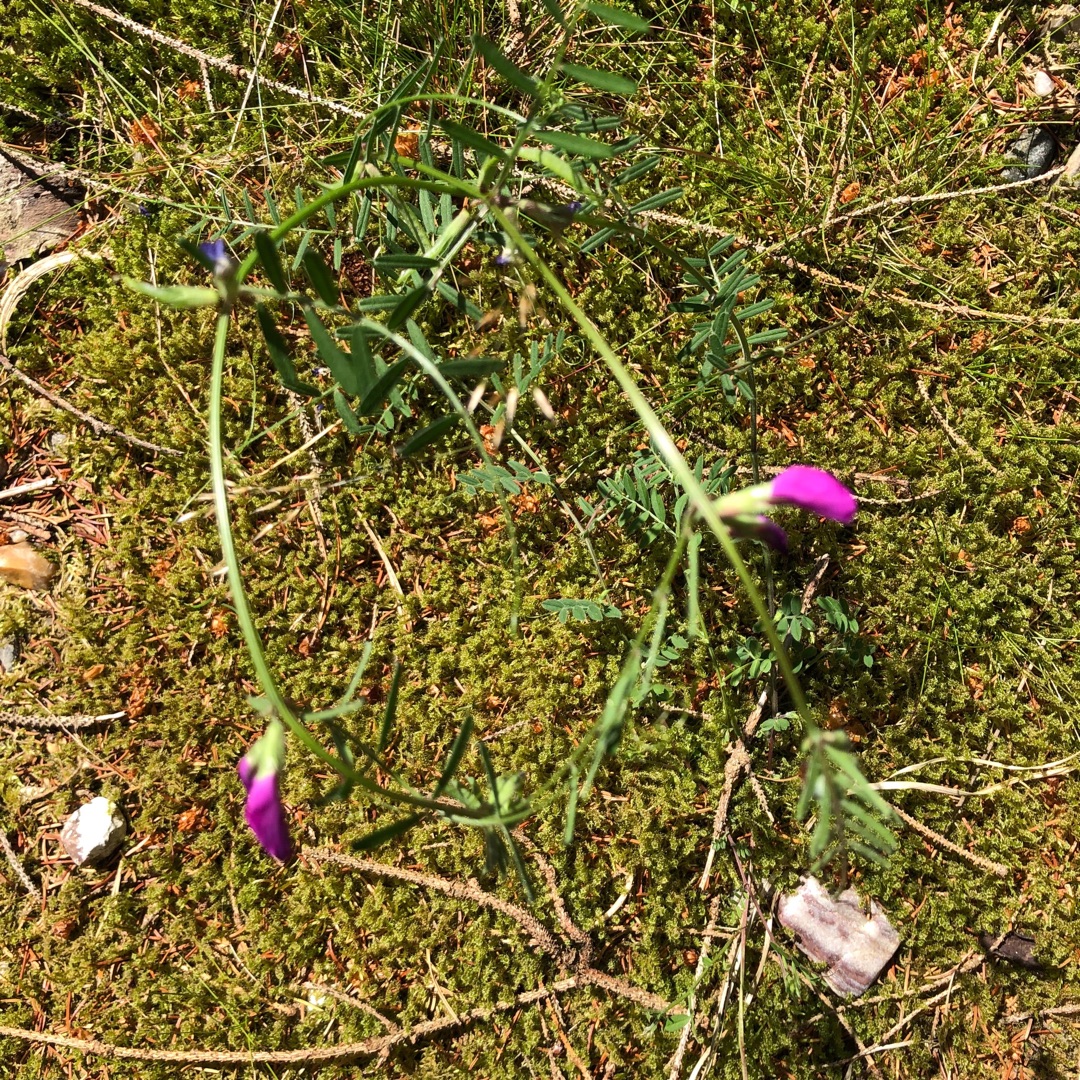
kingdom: Plantae
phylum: Tracheophyta
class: Magnoliopsida
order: Fabales
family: Fabaceae
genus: Vicia
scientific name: Vicia sativa
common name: Foder-vikke
